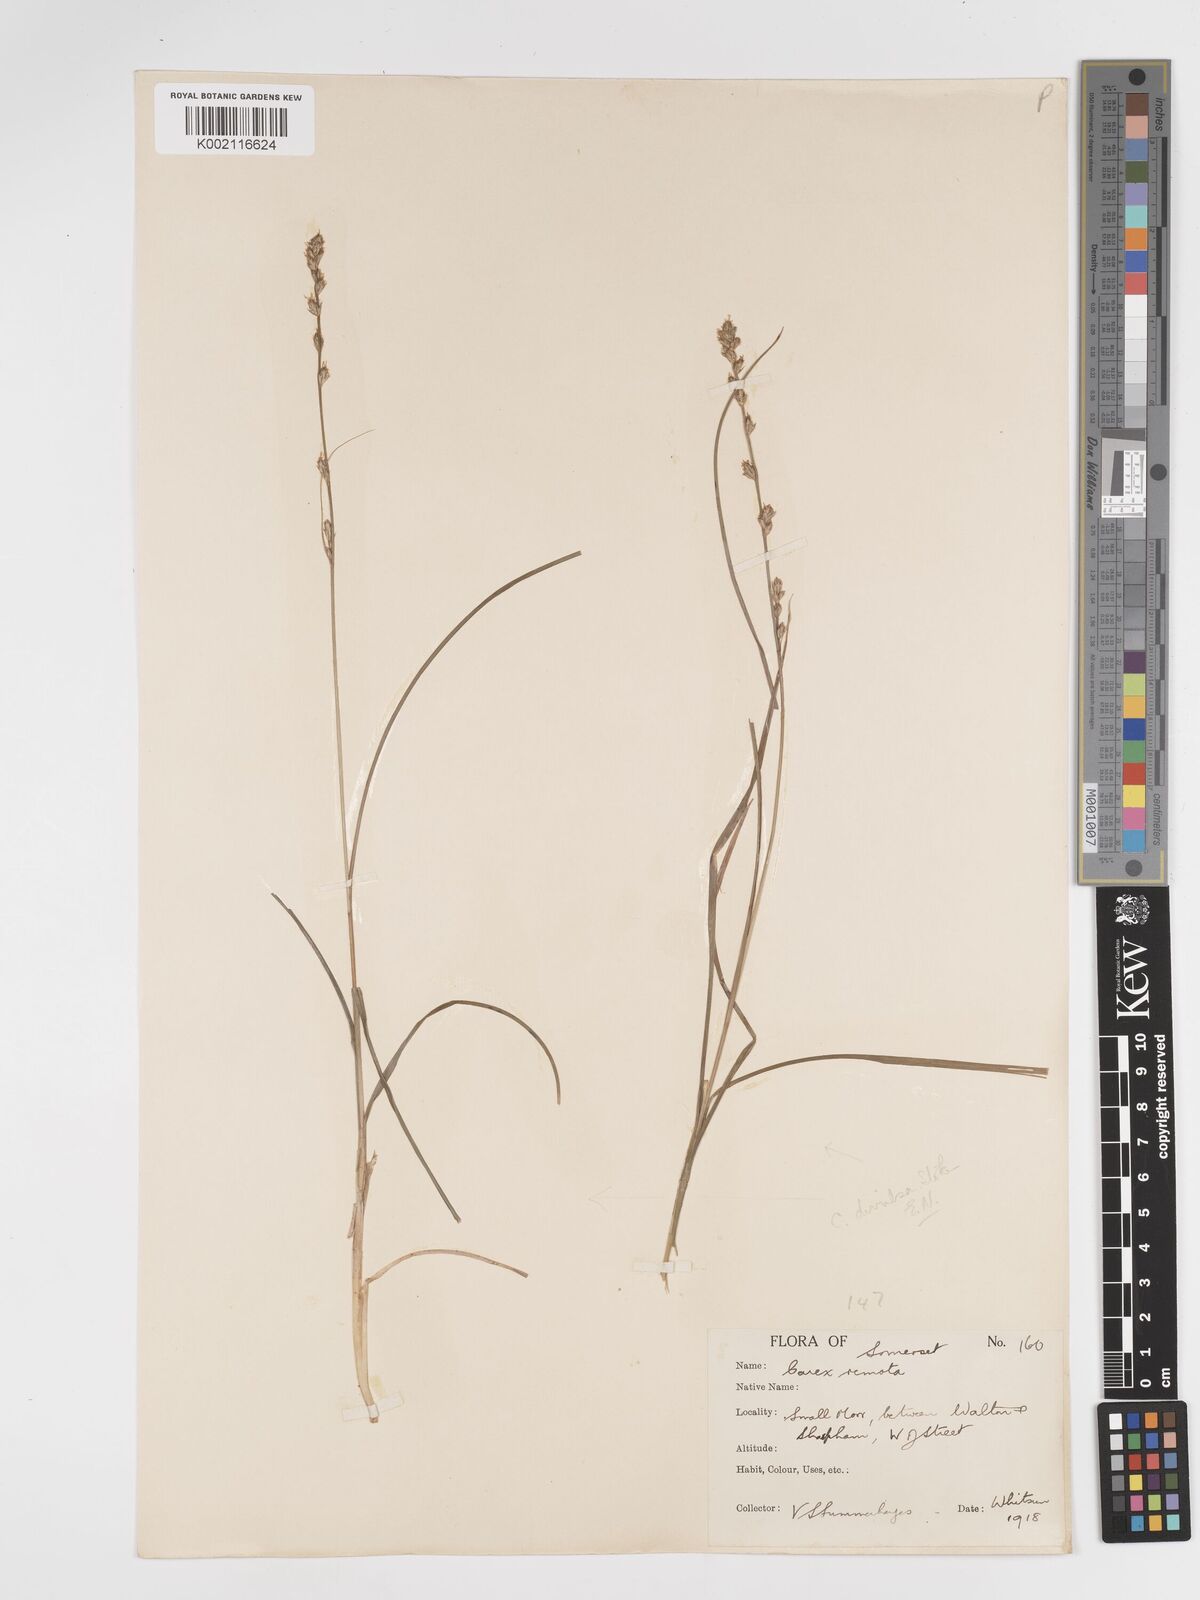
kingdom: Plantae
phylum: Tracheophyta
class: Liliopsida
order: Poales
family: Cyperaceae
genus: Carex
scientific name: Carex divulsa
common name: Grassland sedge
